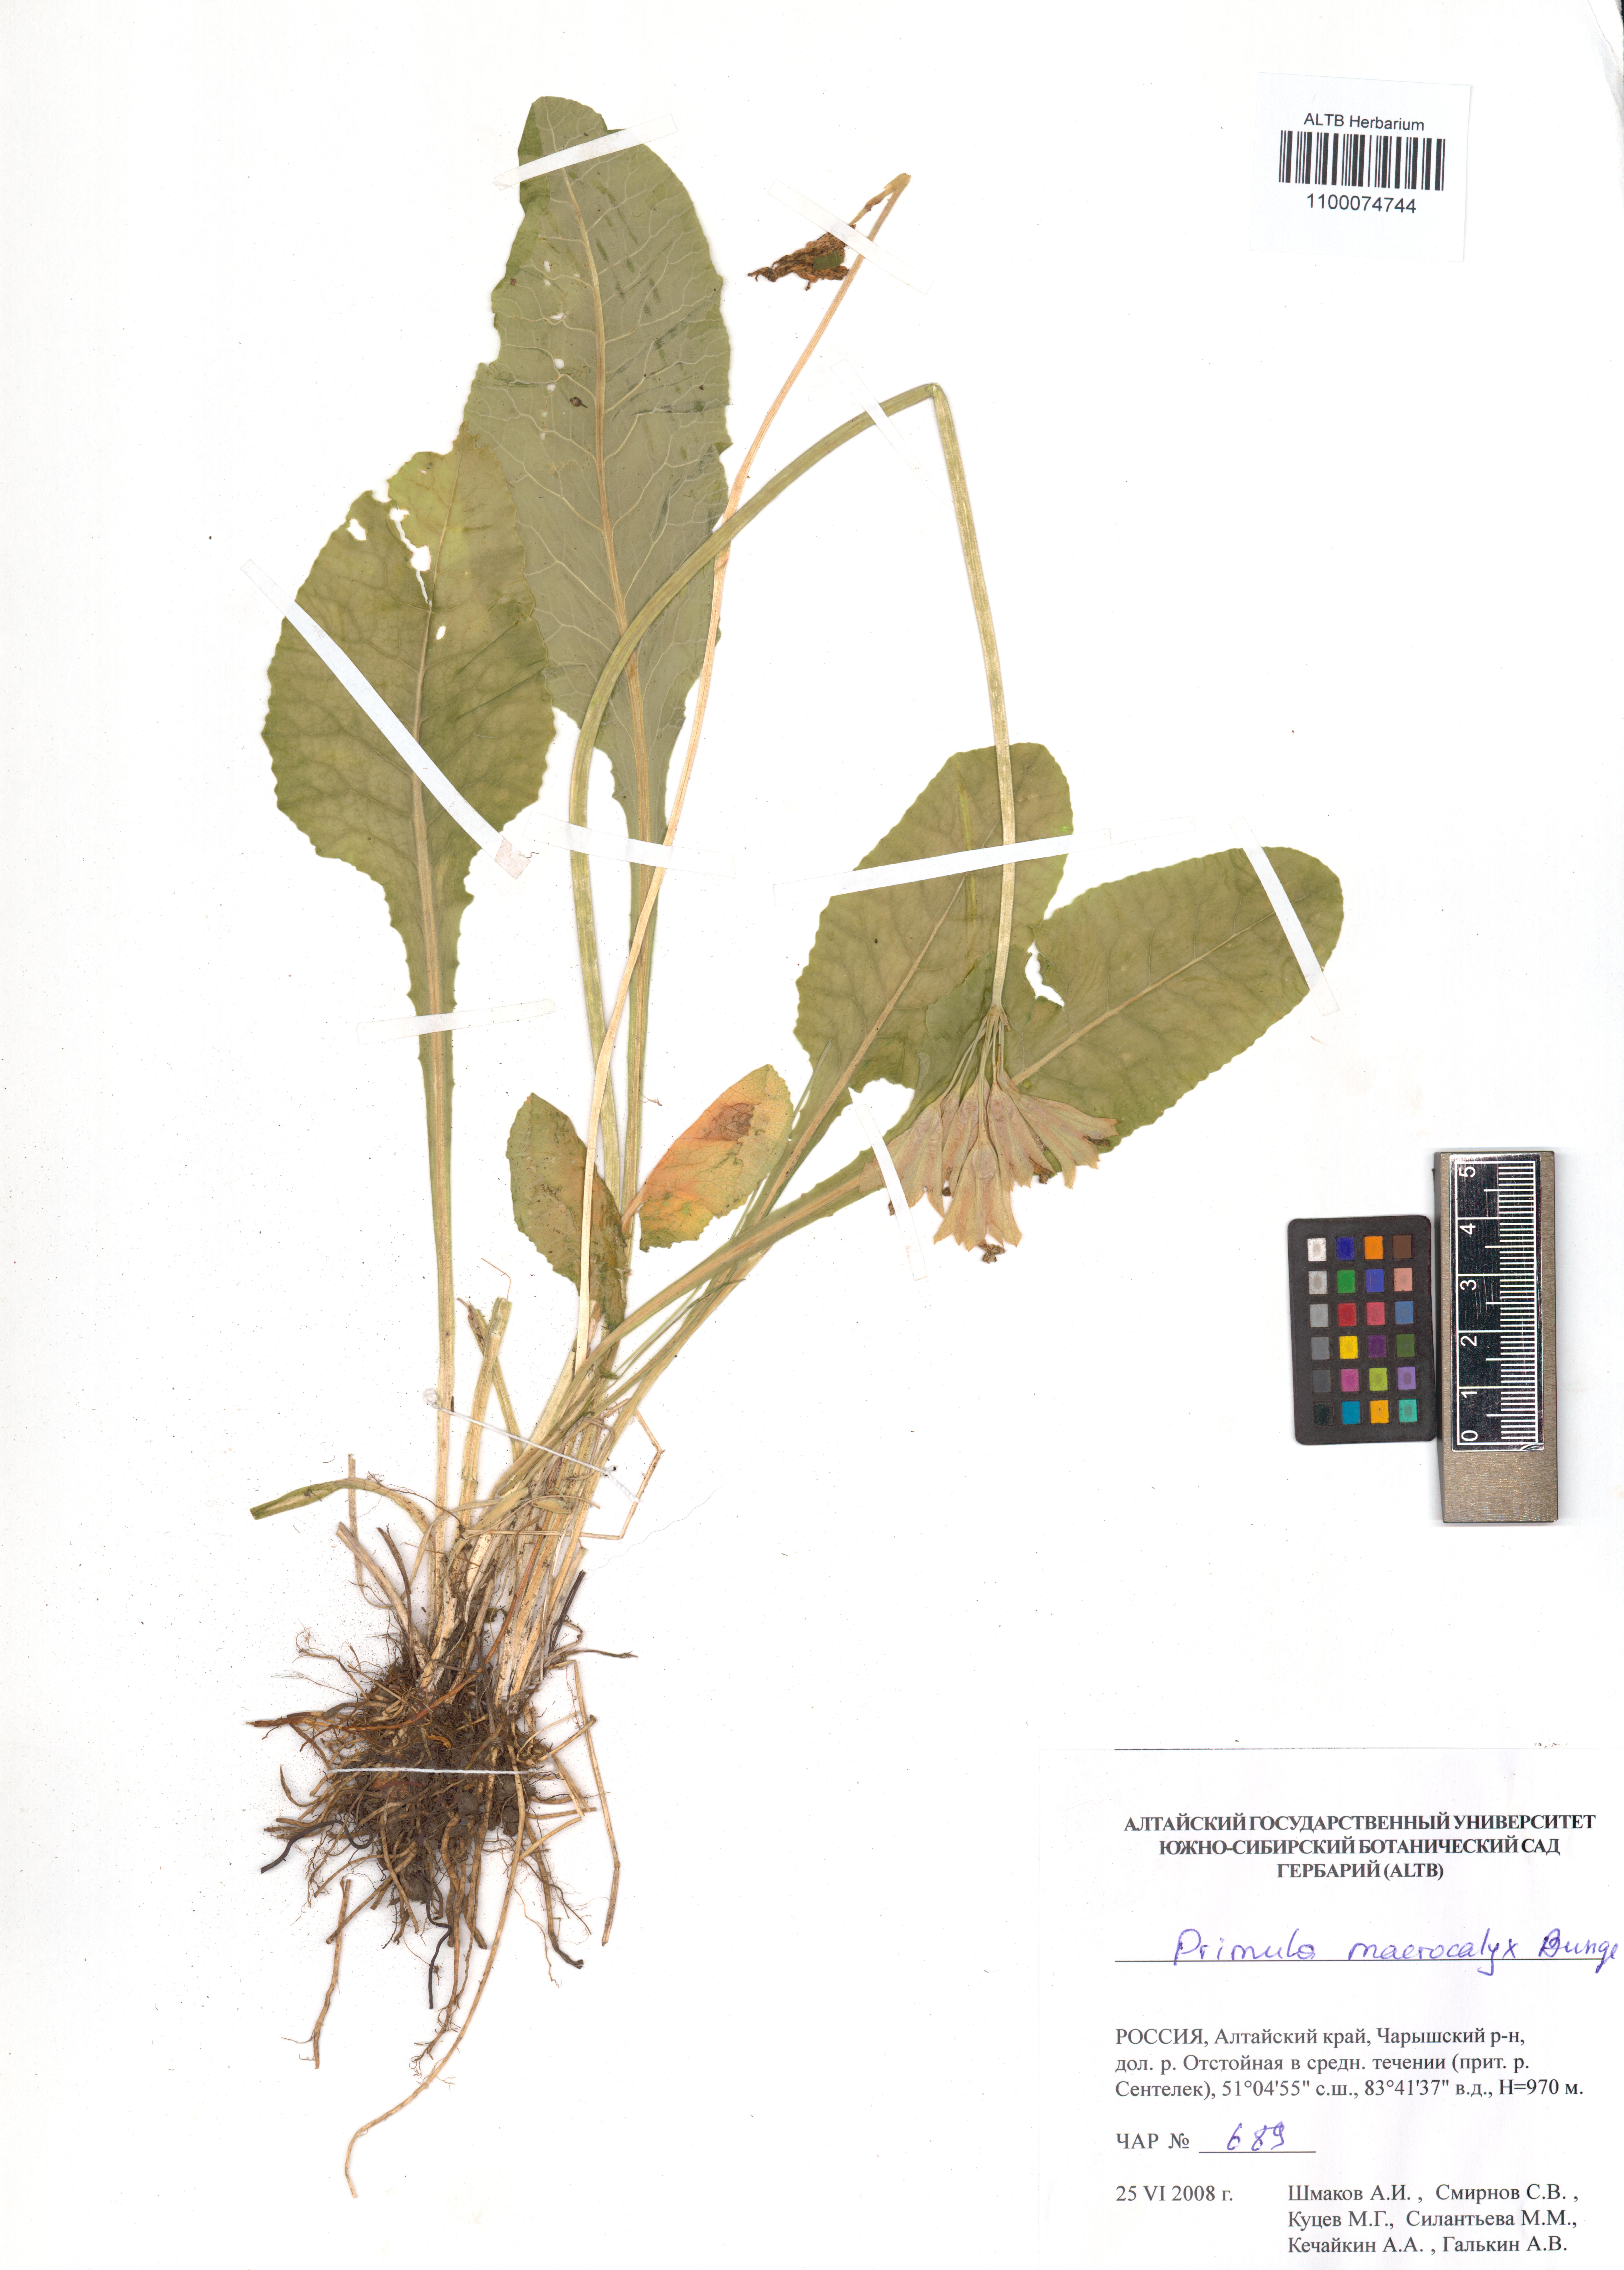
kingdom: Plantae
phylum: Tracheophyta
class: Magnoliopsida
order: Ericales
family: Primulaceae
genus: Primula
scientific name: Primula veris
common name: Cowslip
